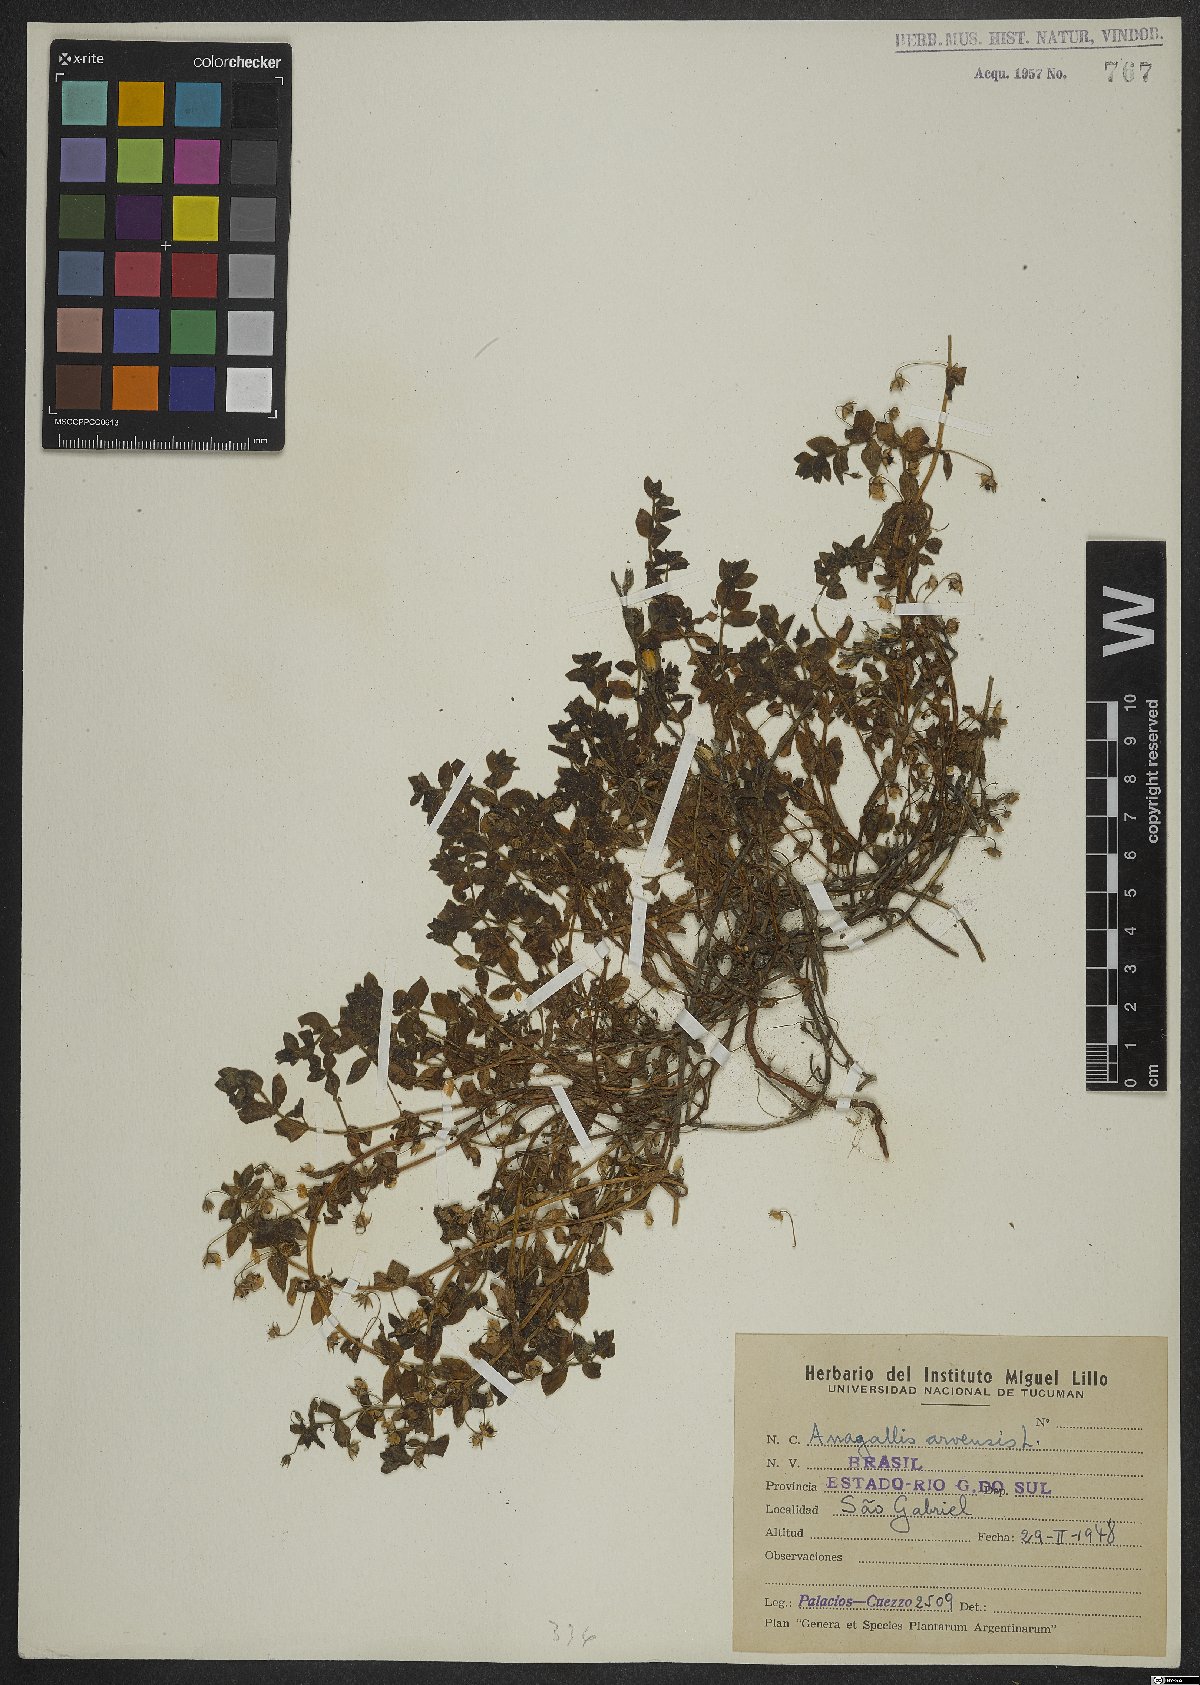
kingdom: Plantae
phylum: Tracheophyta
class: Magnoliopsida
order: Ericales
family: Primulaceae
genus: Lysimachia
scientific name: Lysimachia arvensis
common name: Scarlet pimpernel
